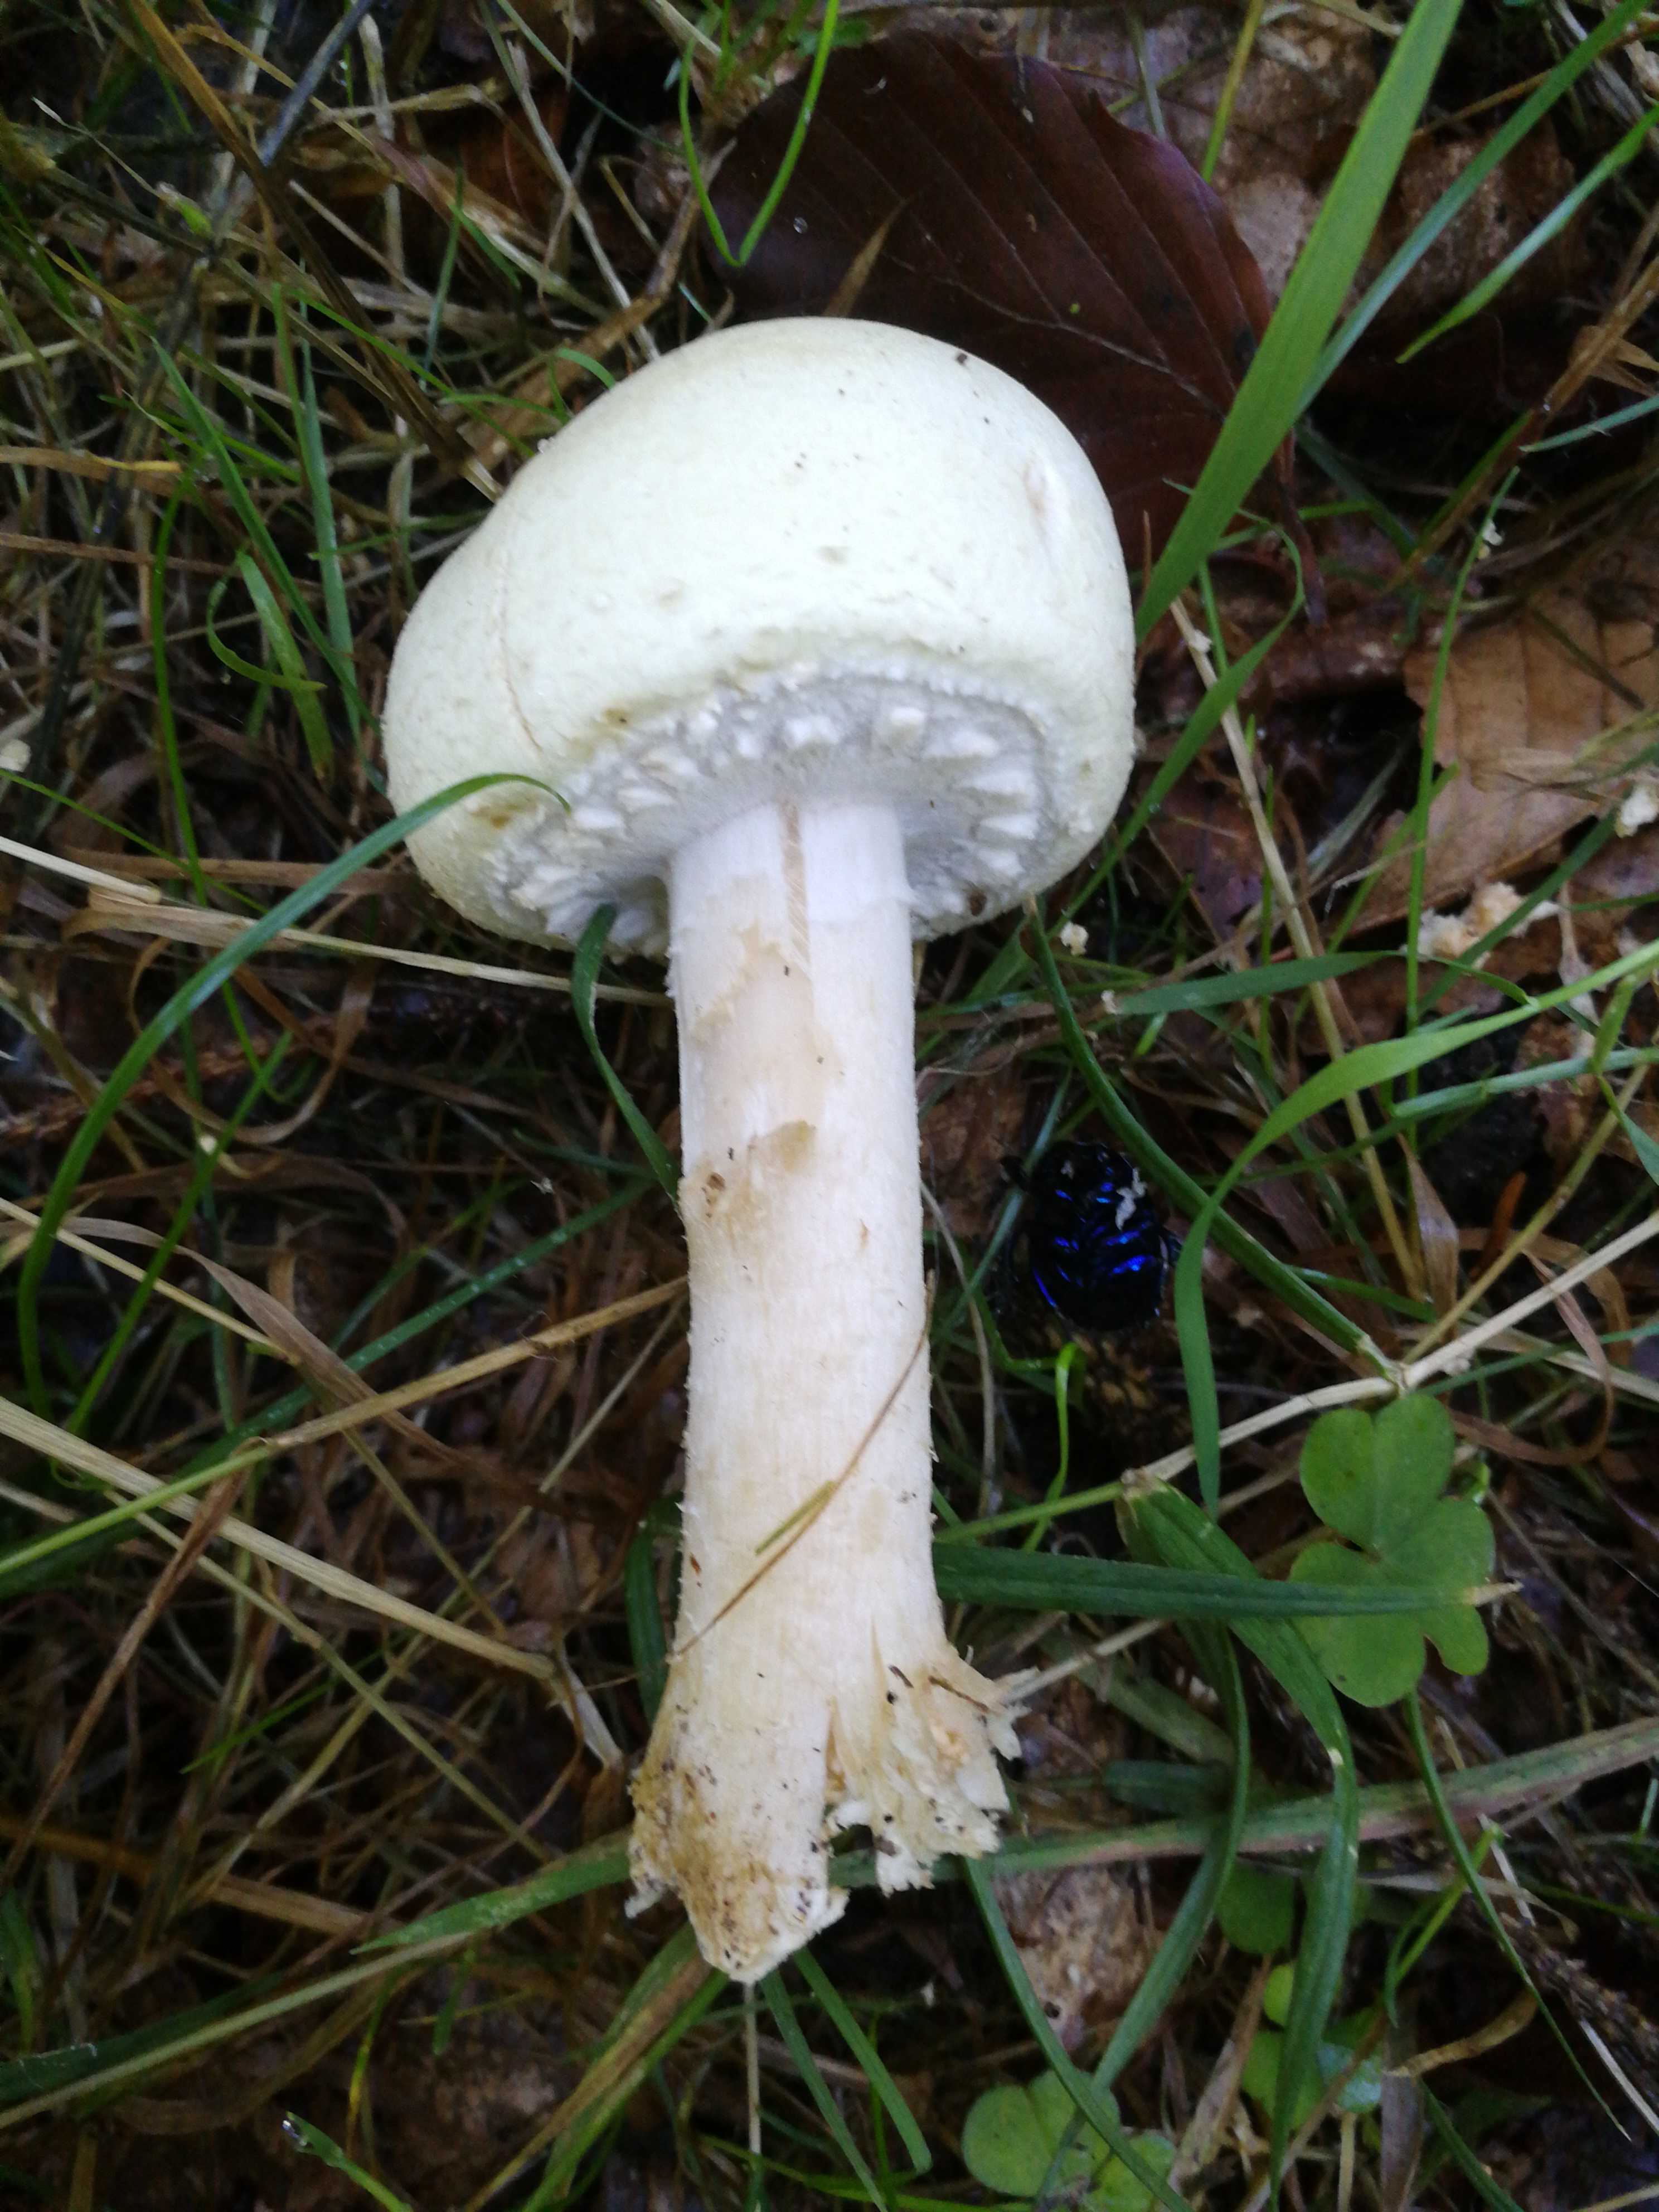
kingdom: Fungi
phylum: Basidiomycota
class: Agaricomycetes
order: Agaricales
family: Amanitaceae
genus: Amanita
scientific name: Amanita muscaria
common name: rød fluesvamp
